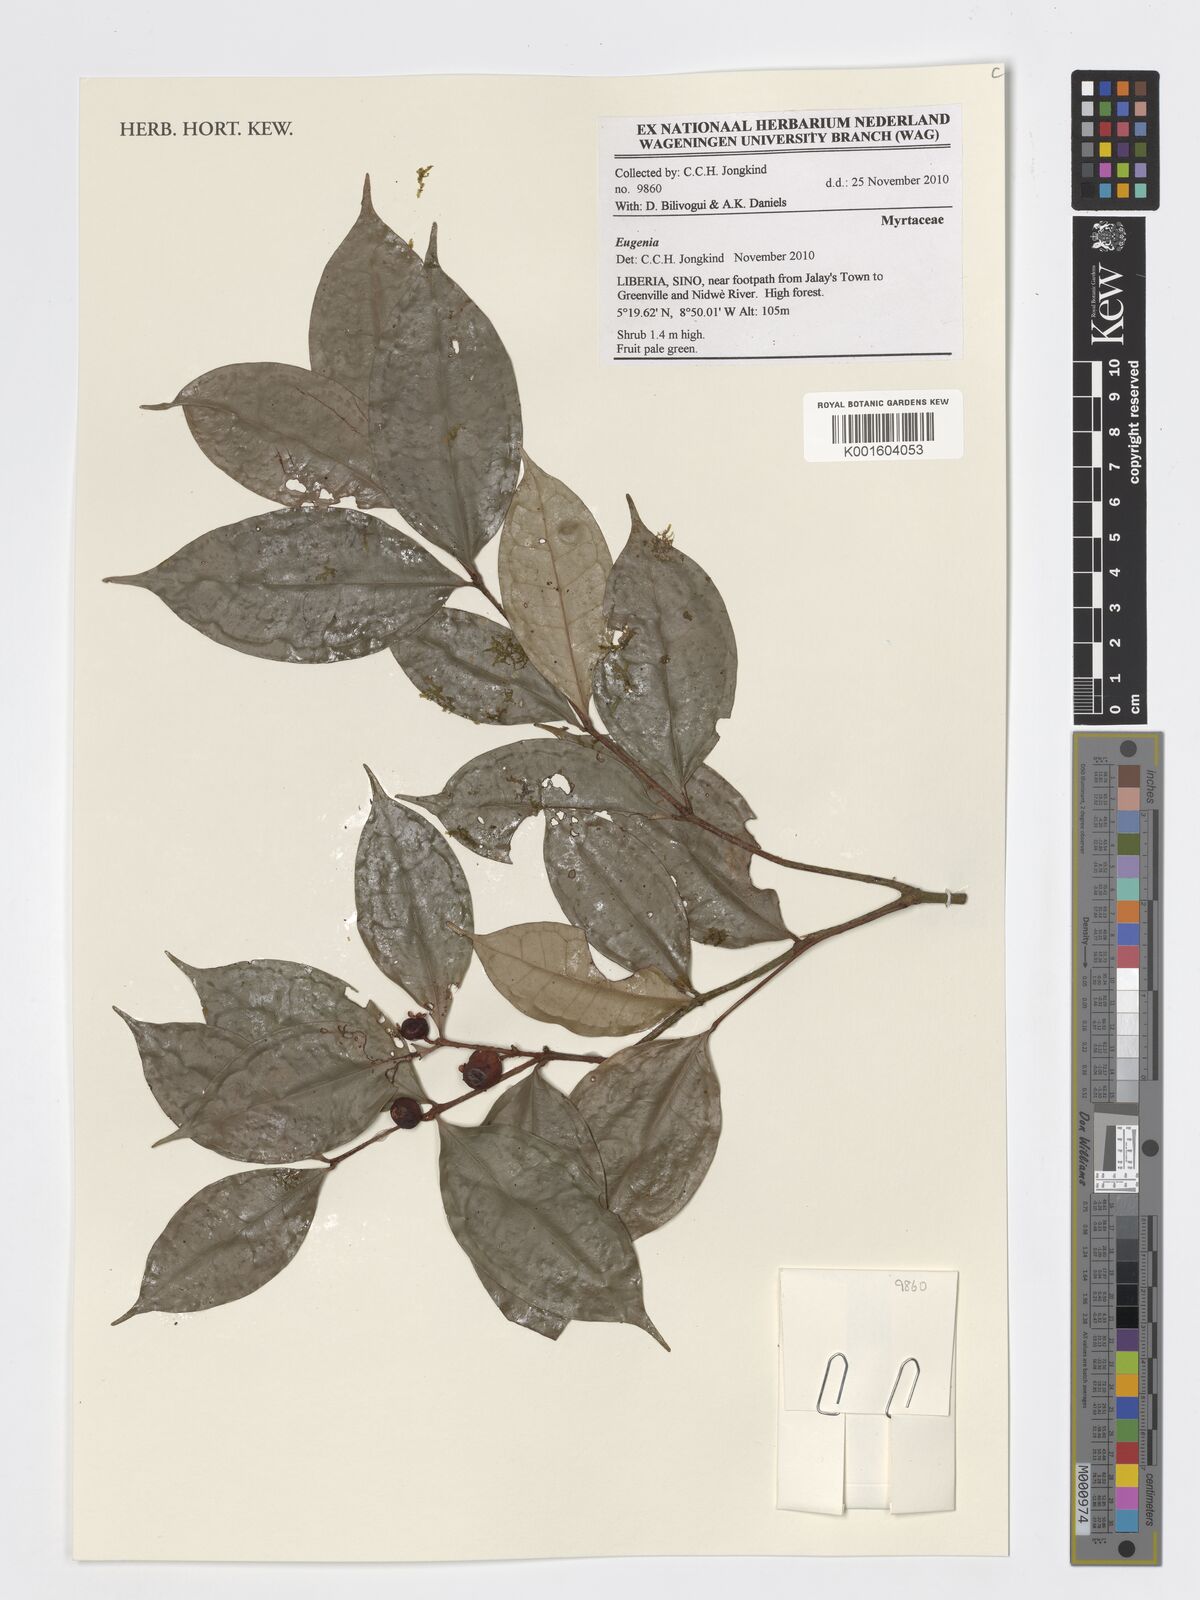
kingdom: Plantae
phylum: Tracheophyta
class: Magnoliopsida
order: Myrtales
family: Myrtaceae
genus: Eugenia
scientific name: Eugenia
